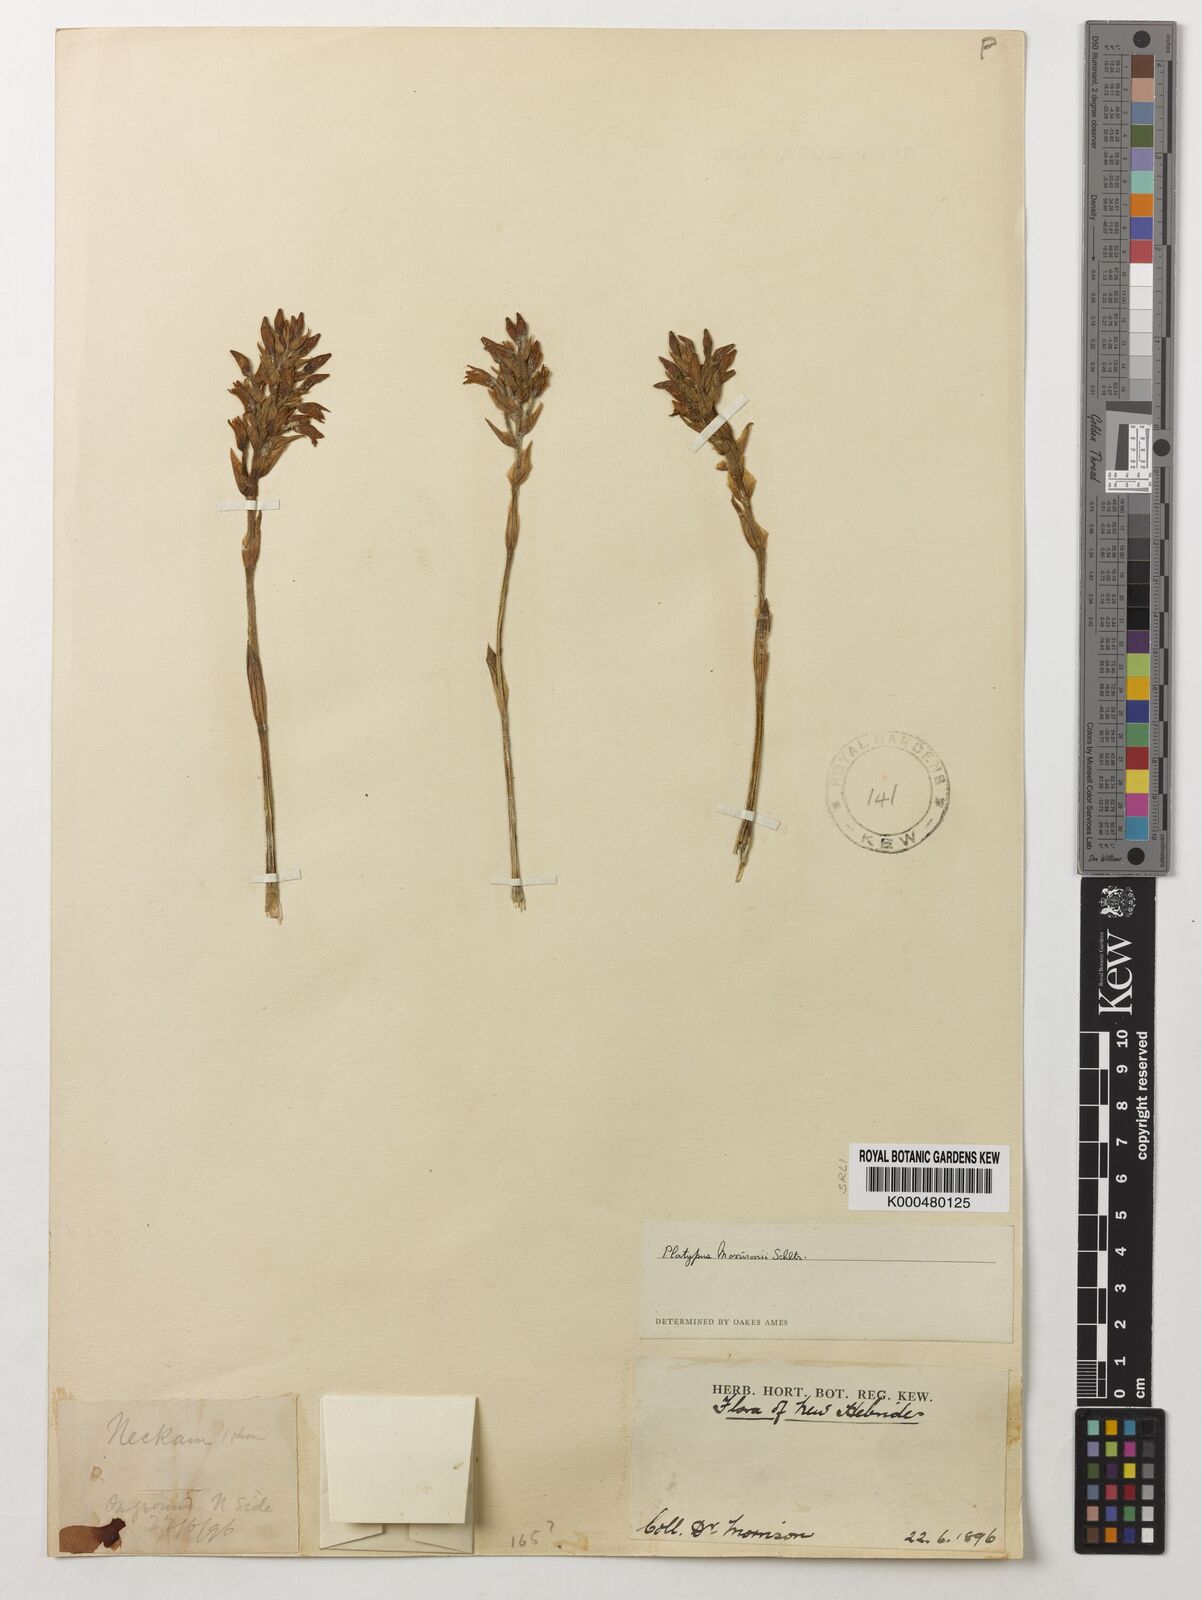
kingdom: Plantae
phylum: Tracheophyta
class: Liliopsida
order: Asparagales
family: Orchidaceae
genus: Platylepis
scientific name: Platylepis grandiflora
